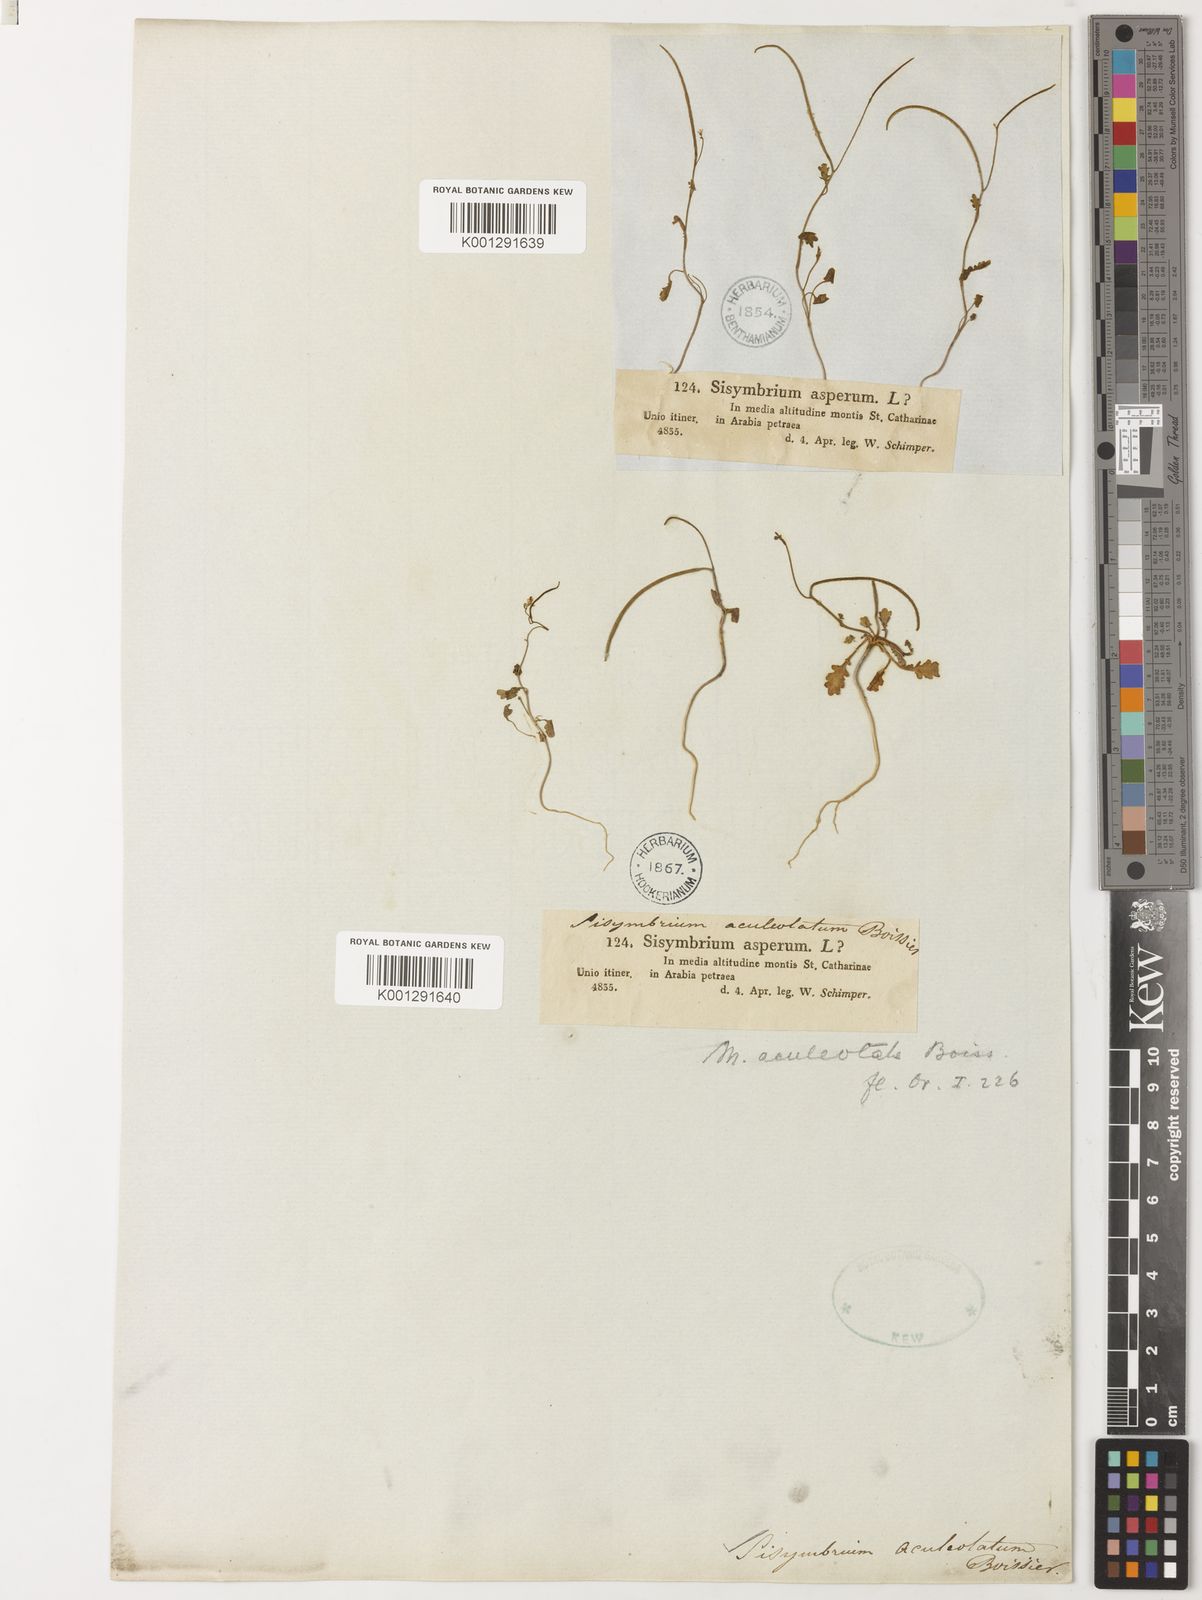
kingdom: Plantae
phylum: Tracheophyta
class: Magnoliopsida
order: Brassicales
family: Brassicaceae
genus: Sisymbrium
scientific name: Sisymbrium aculeolatum
